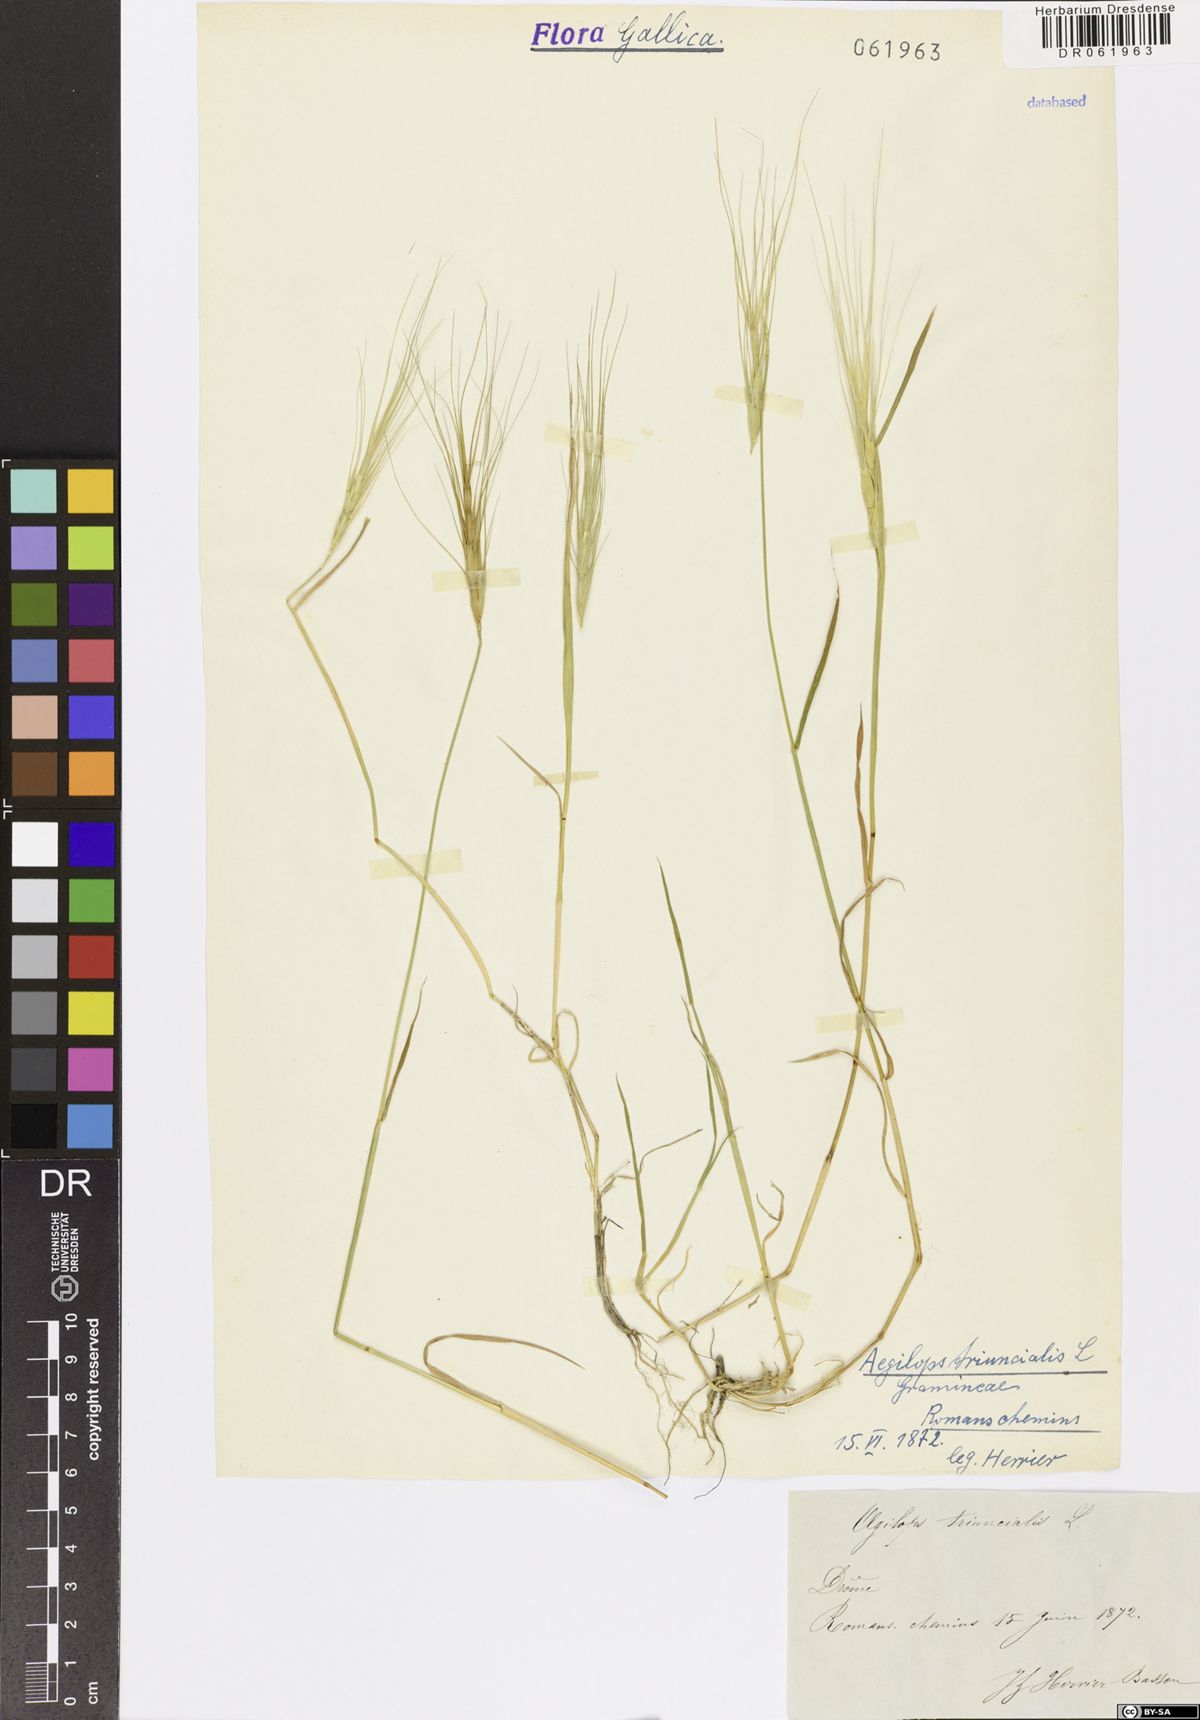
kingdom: Plantae
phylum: Tracheophyta
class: Liliopsida
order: Poales
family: Poaceae
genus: Aegilops
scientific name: Aegilops triuncialis
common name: Barb goat grass
